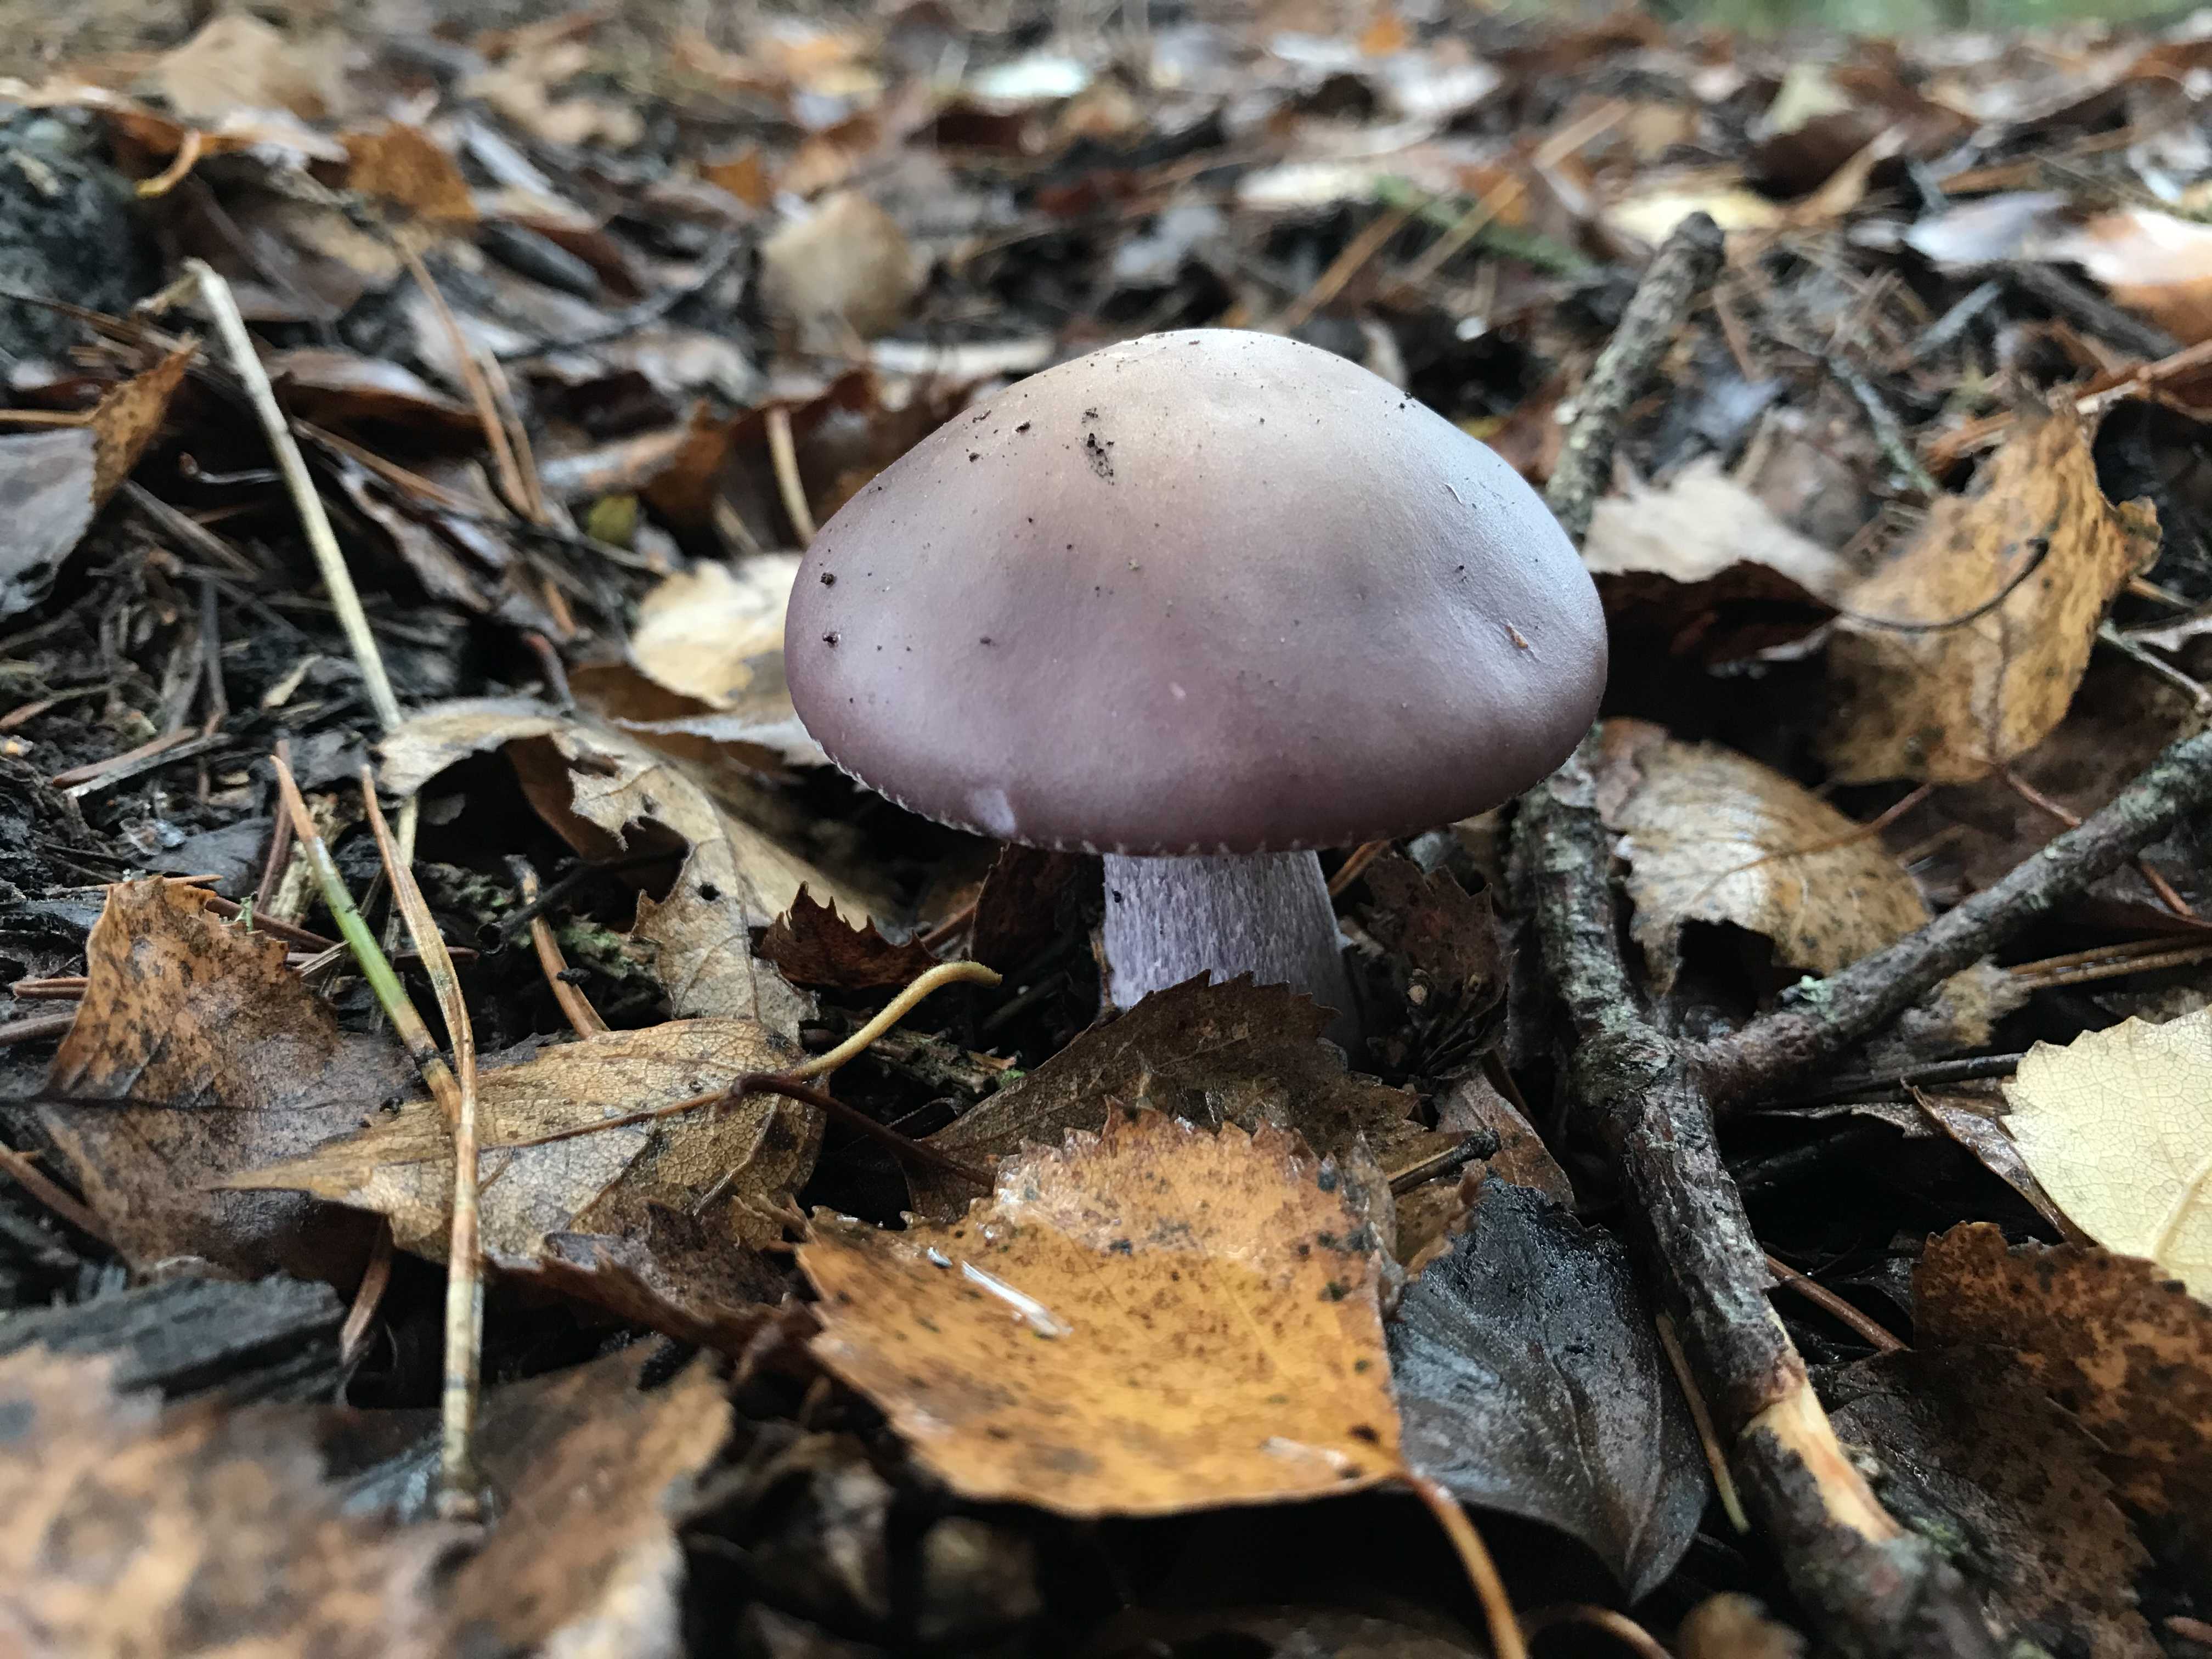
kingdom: Fungi
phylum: Basidiomycota
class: Agaricomycetes
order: Agaricales
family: Tricholomataceae
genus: Lepista
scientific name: Lepista nuda
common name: violet hekseringshat
